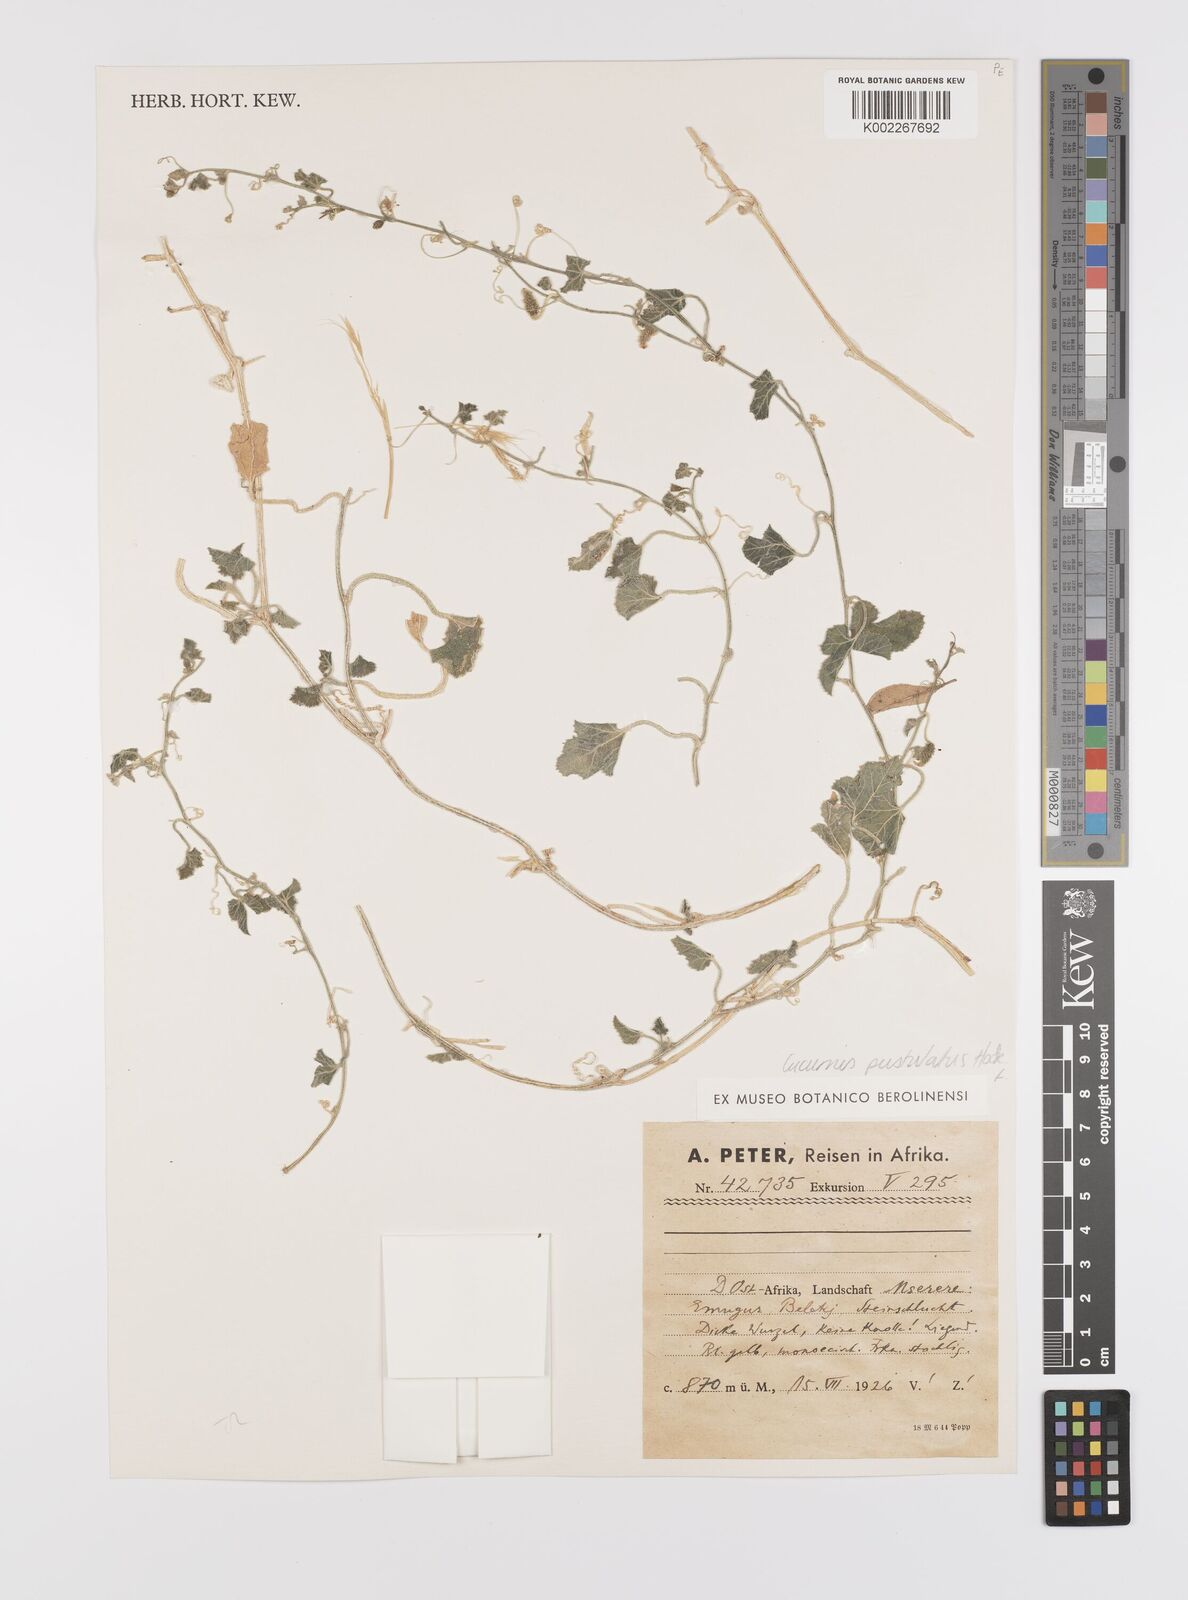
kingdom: Plantae
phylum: Tracheophyta
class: Magnoliopsida
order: Cucurbitales
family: Cucurbitaceae
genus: Cucumis
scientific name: Cucumis
